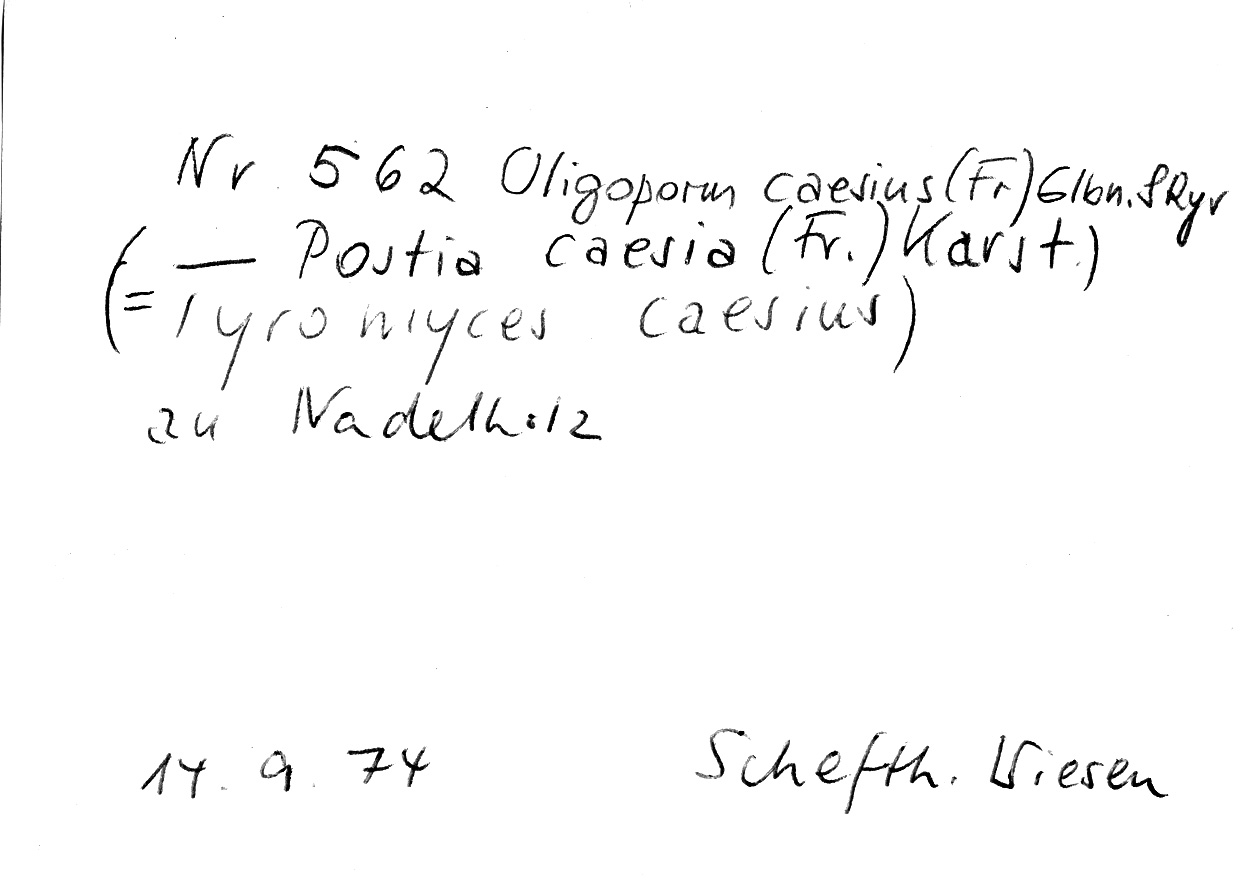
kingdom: Fungi
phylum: Basidiomycota
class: Agaricomycetes
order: Polyporales
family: Polyporaceae
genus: Cyanosporus
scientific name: Cyanosporus caesius
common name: Blue cheese polypore
